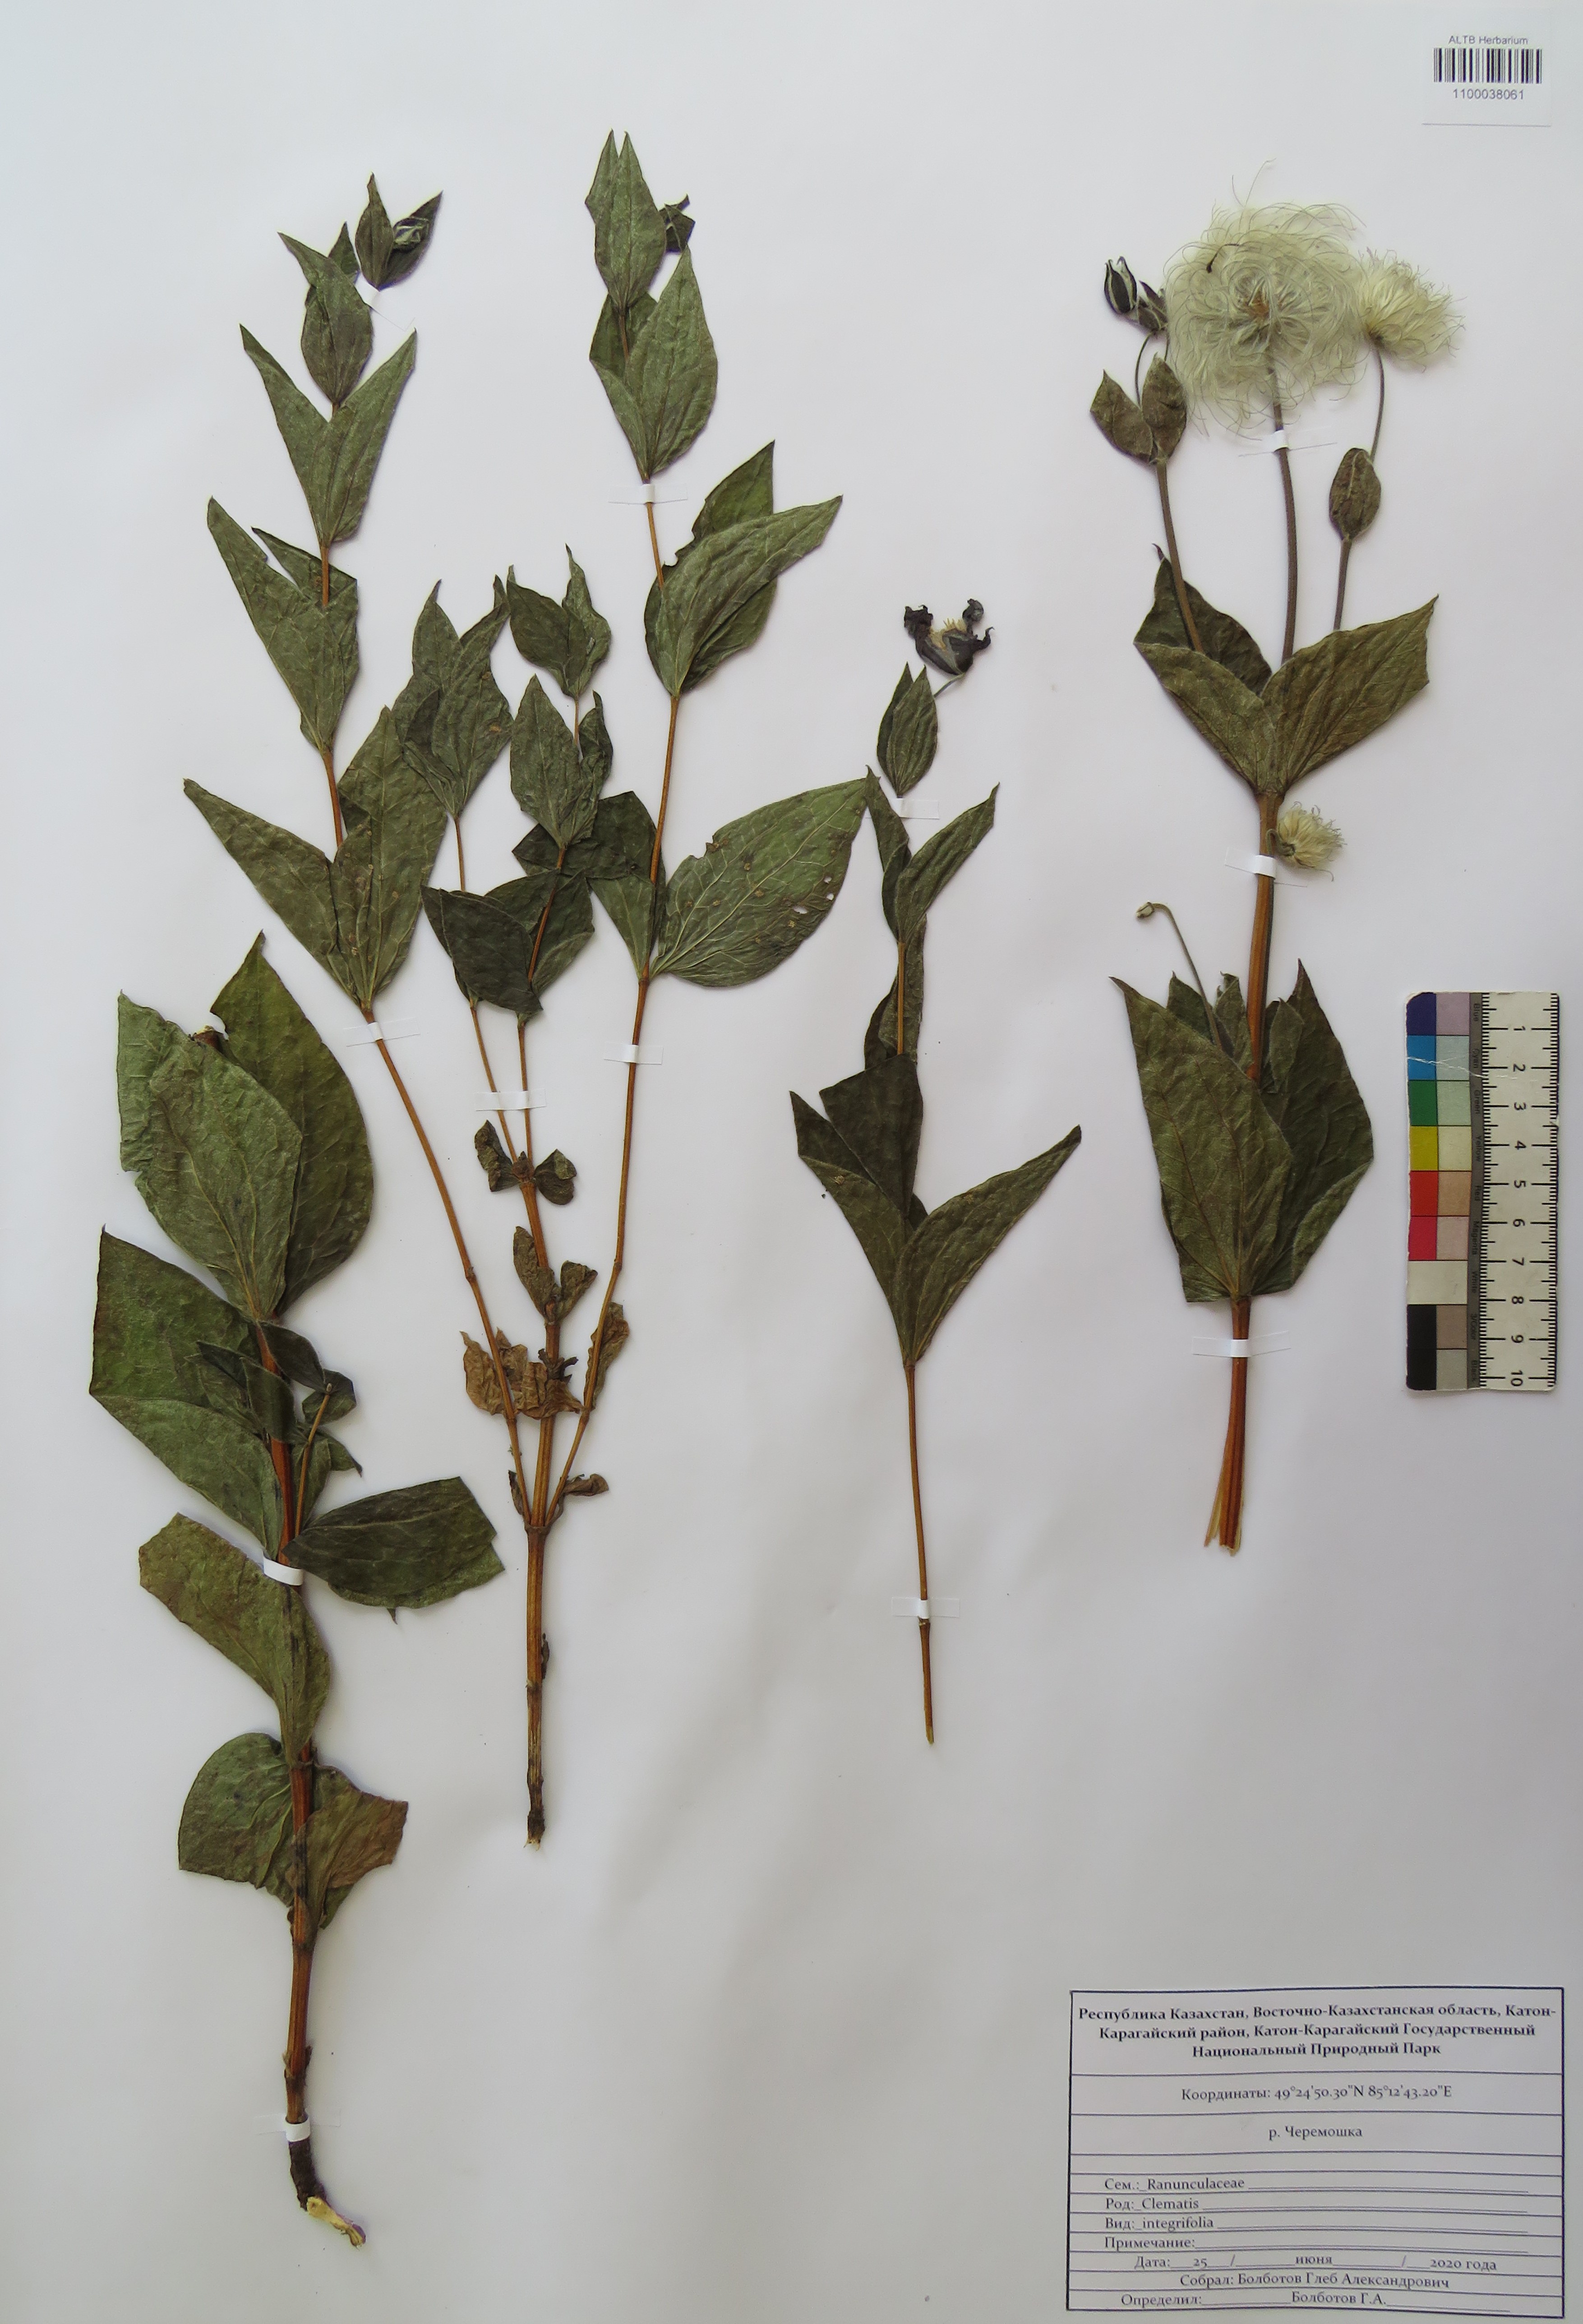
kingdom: Plantae
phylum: Tracheophyta
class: Magnoliopsida
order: Ranunculales
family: Ranunculaceae
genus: Clematis
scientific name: Clematis integrifolia
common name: Solitary clematis
